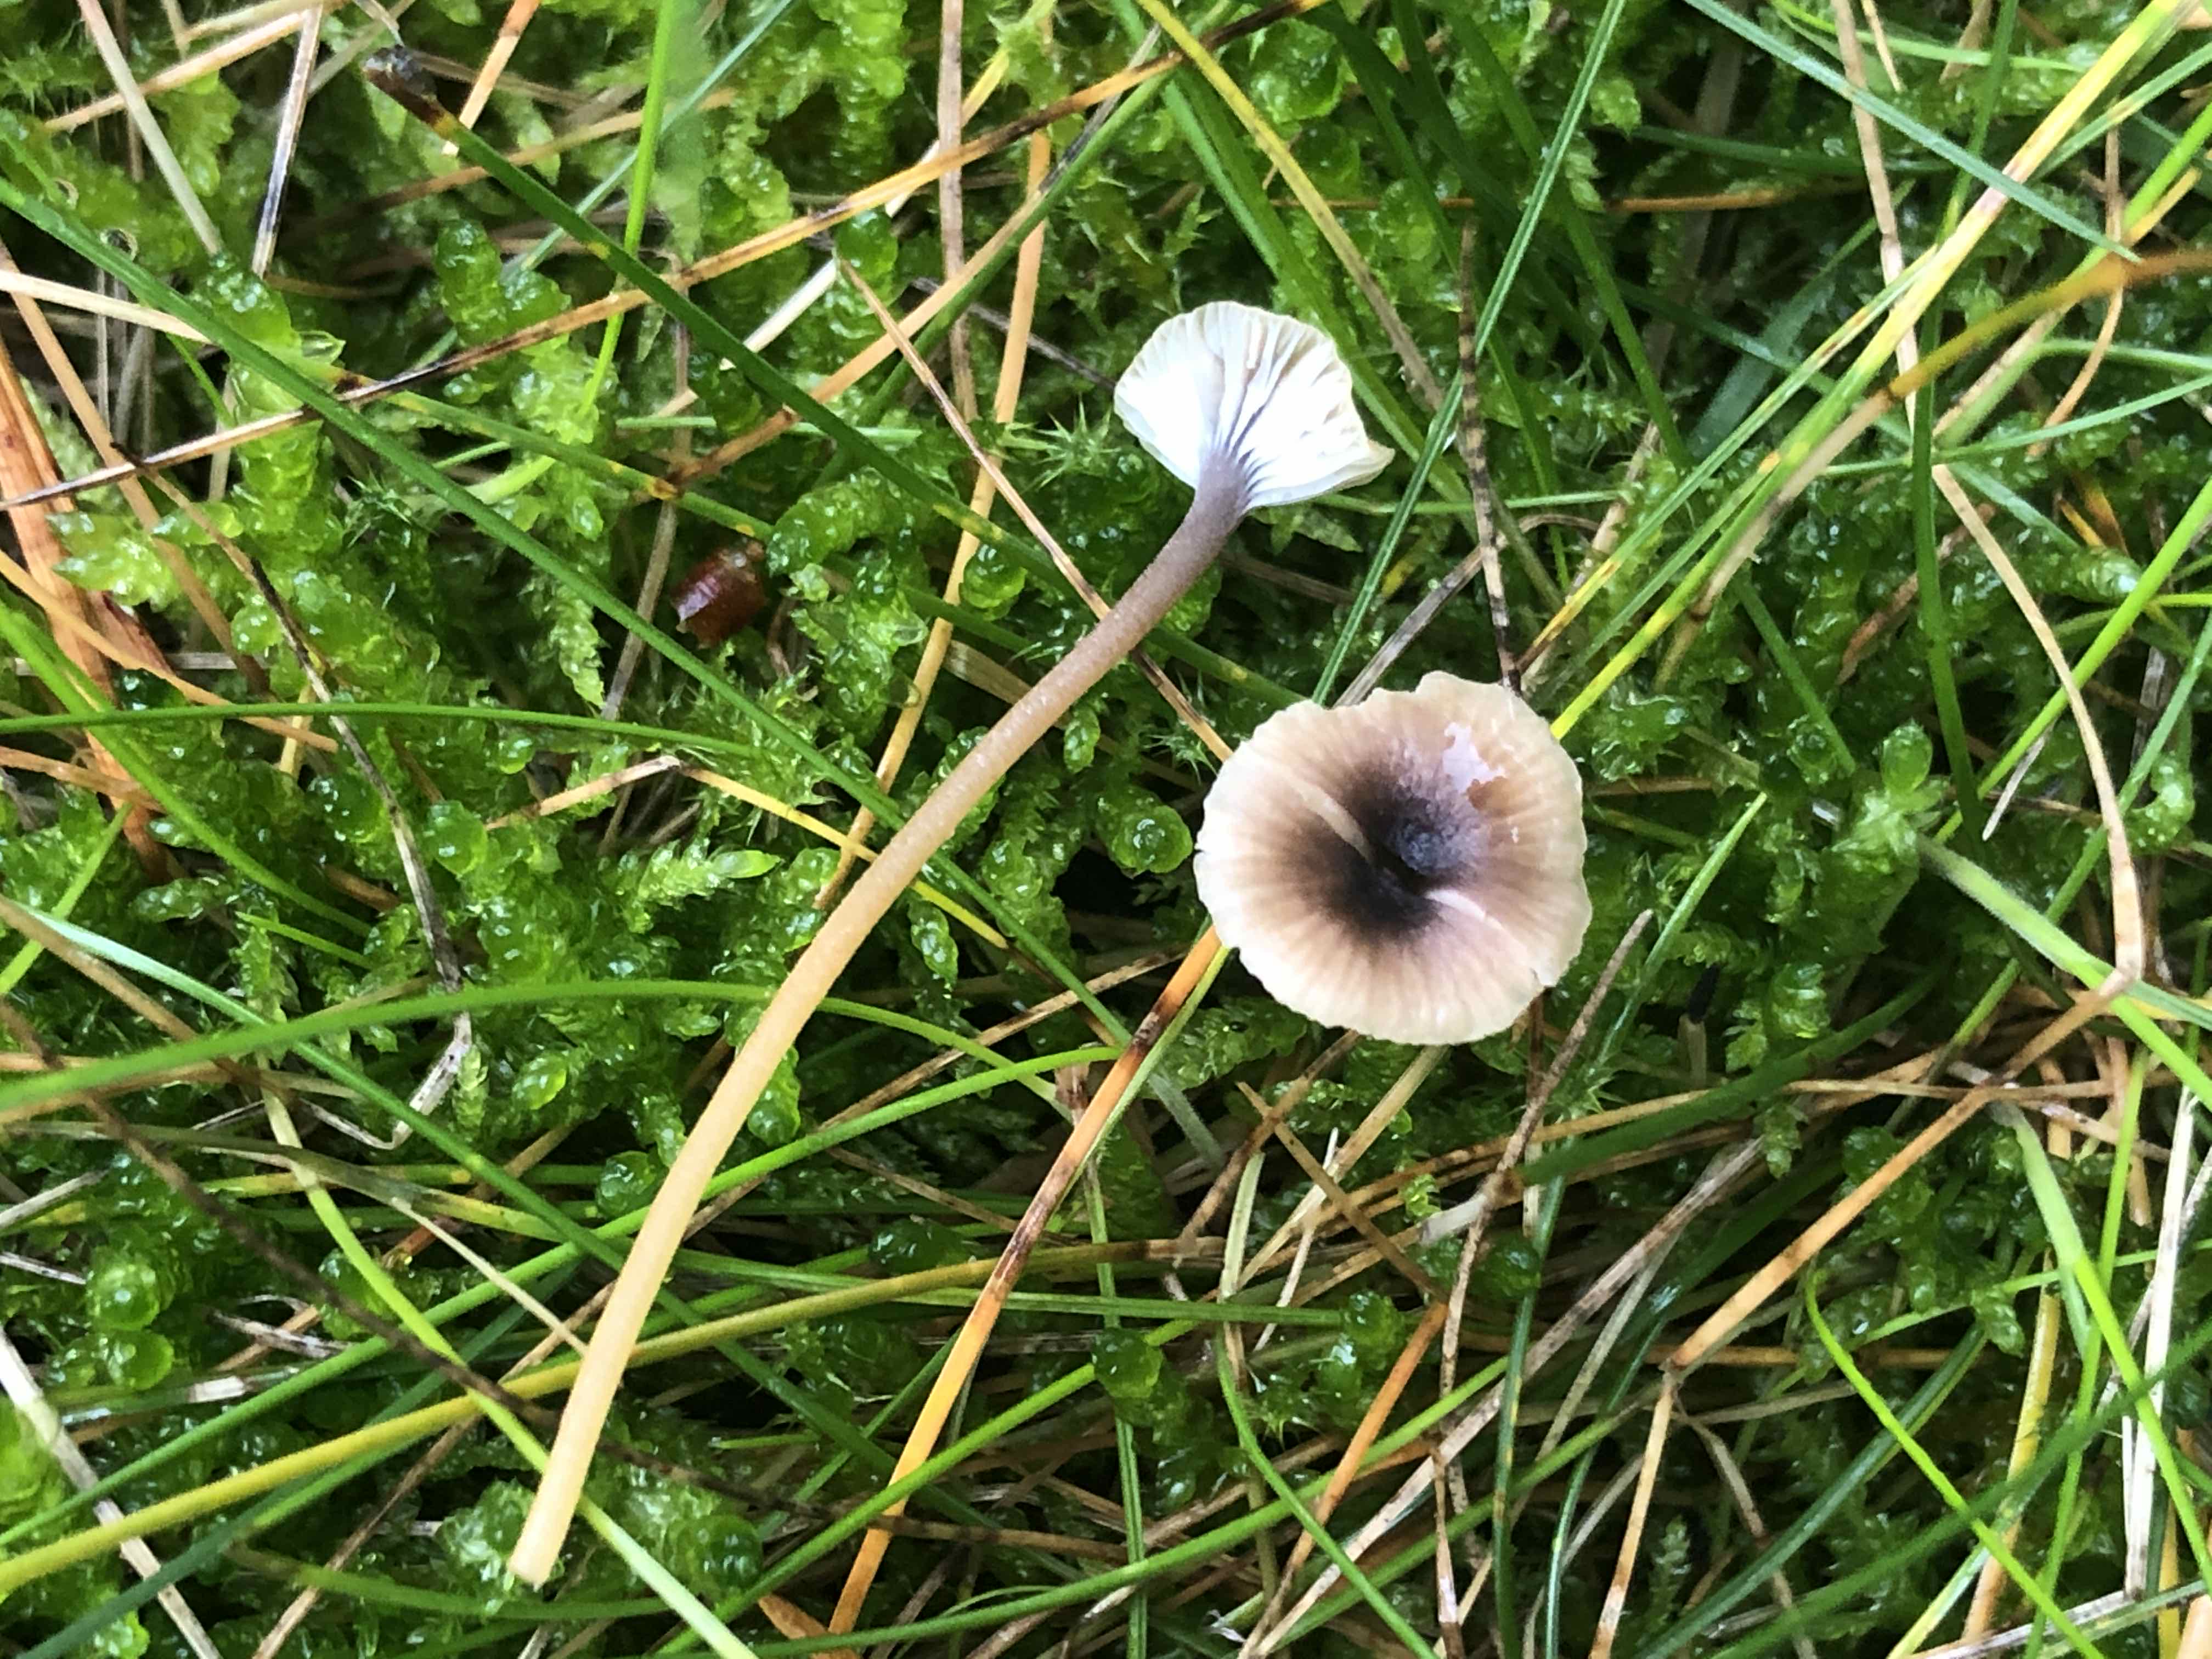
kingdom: Fungi
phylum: Basidiomycota
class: Agaricomycetes
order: Hymenochaetales
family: Rickenellaceae
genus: Rickenella
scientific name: Rickenella swartzii
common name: finstokket mosnavlehat
